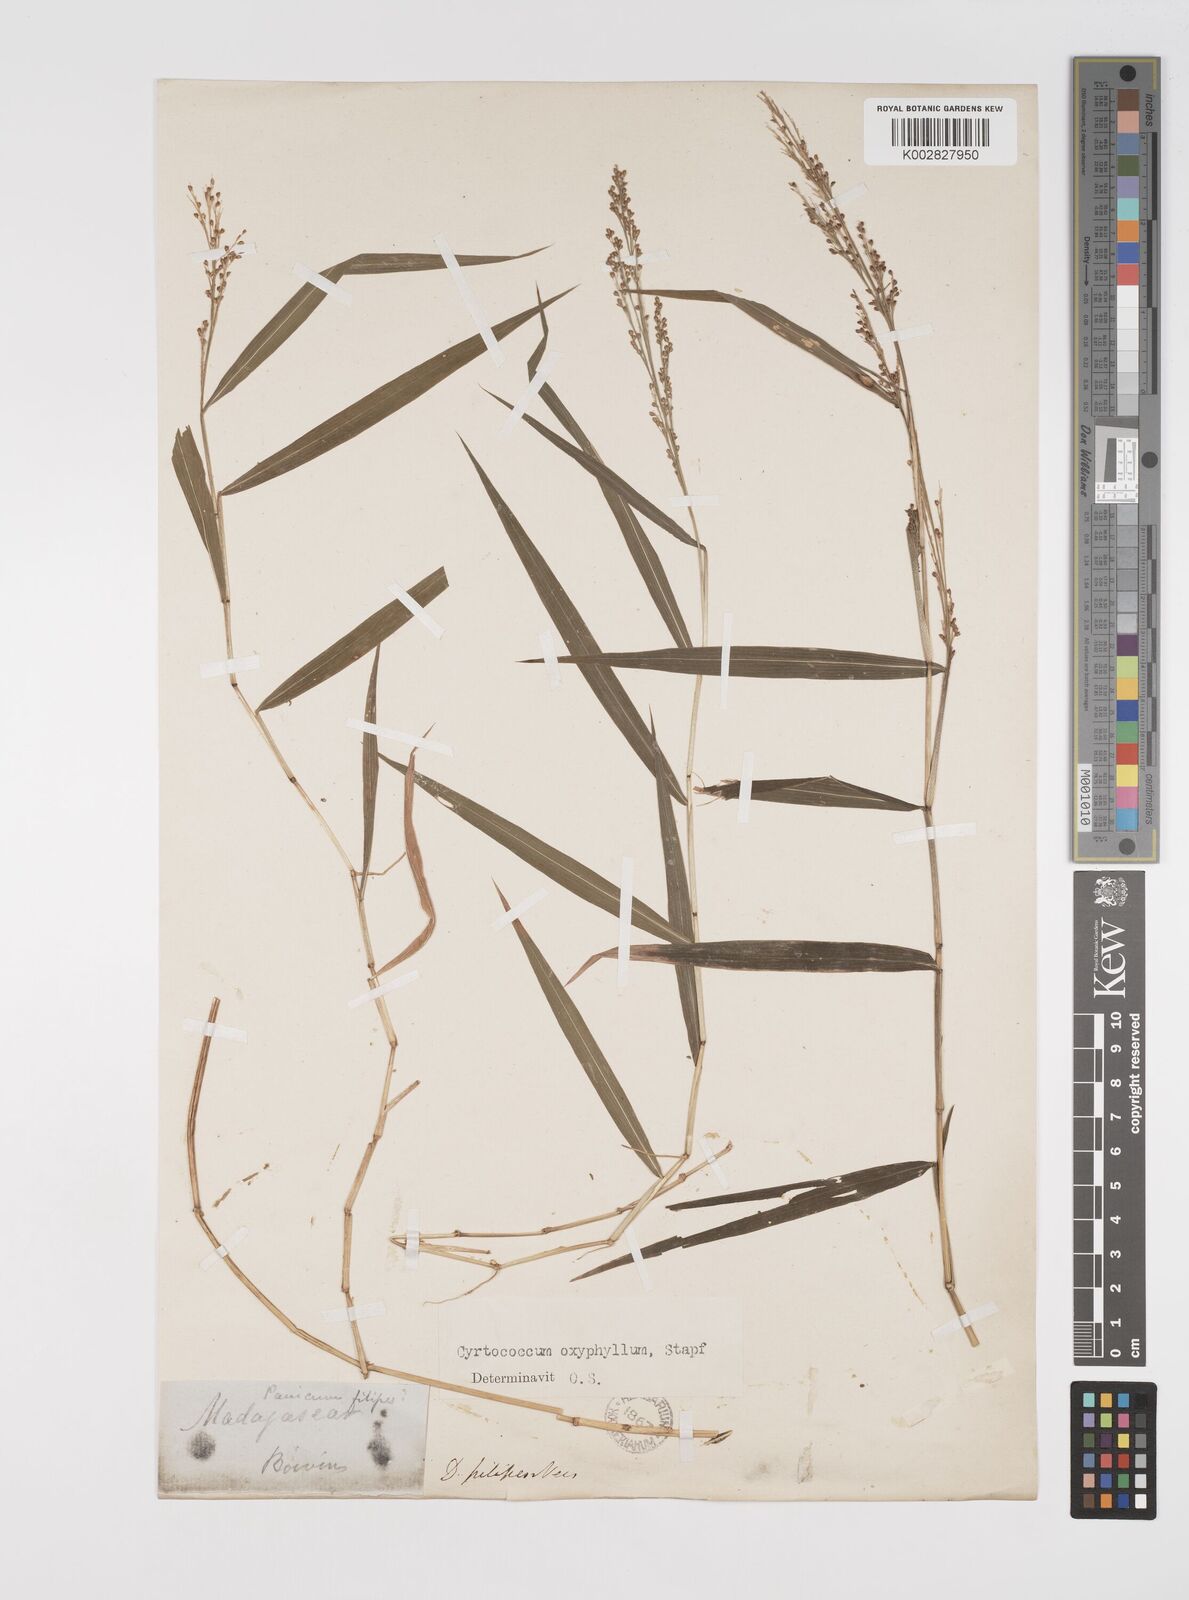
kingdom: Plantae
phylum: Tracheophyta
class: Liliopsida
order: Poales
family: Poaceae
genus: Cyrtococcum
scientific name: Cyrtococcum oxyphyllum
